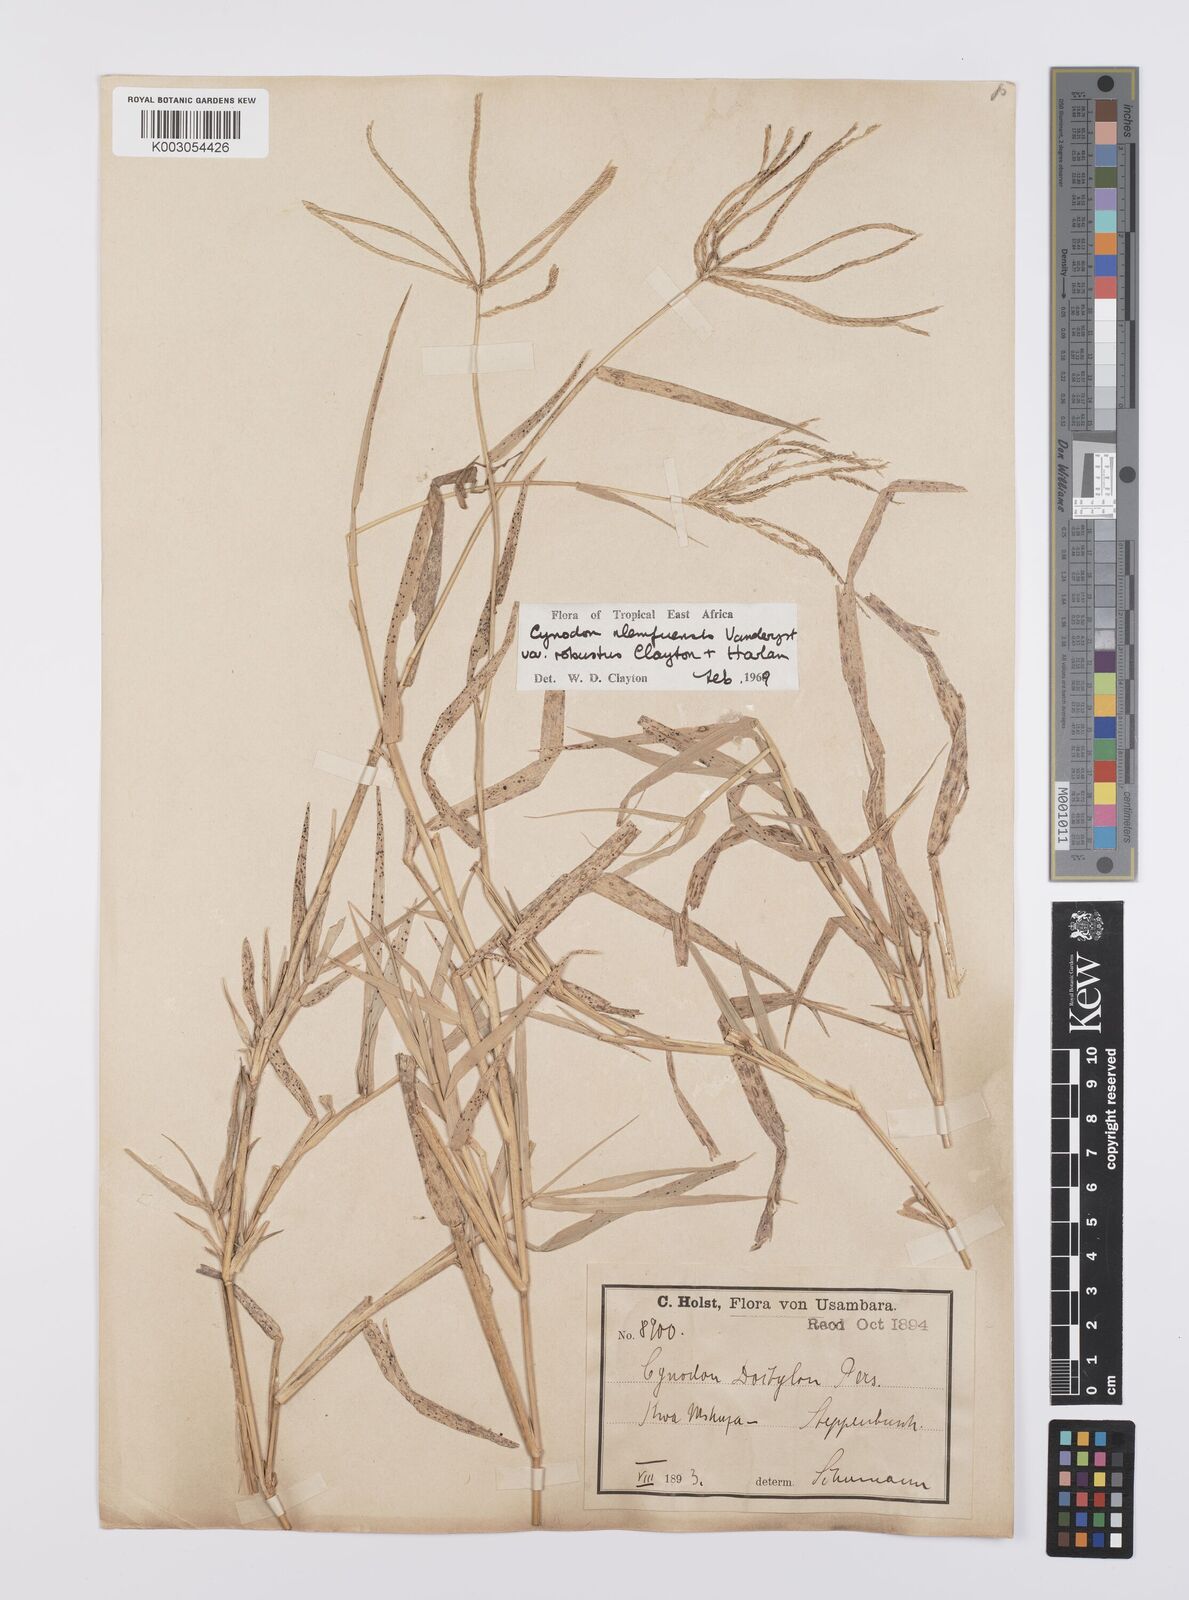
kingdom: Plantae
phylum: Tracheophyta
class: Liliopsida
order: Poales
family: Poaceae
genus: Cynodon
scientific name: Cynodon nlemfuensis
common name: African bermudagrass
